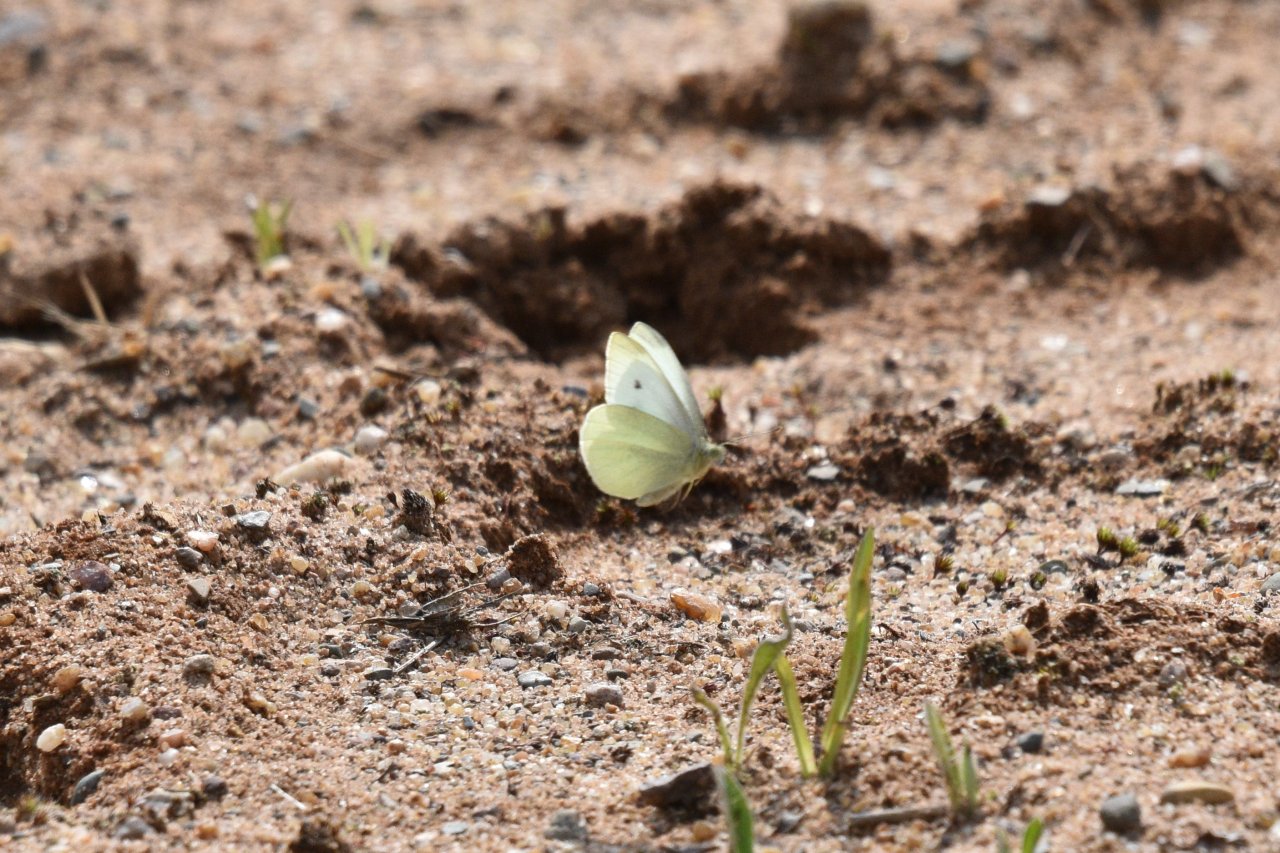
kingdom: Animalia
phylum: Arthropoda
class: Insecta
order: Lepidoptera
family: Pieridae
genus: Pieris
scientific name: Pieris rapae
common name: Cabbage White
